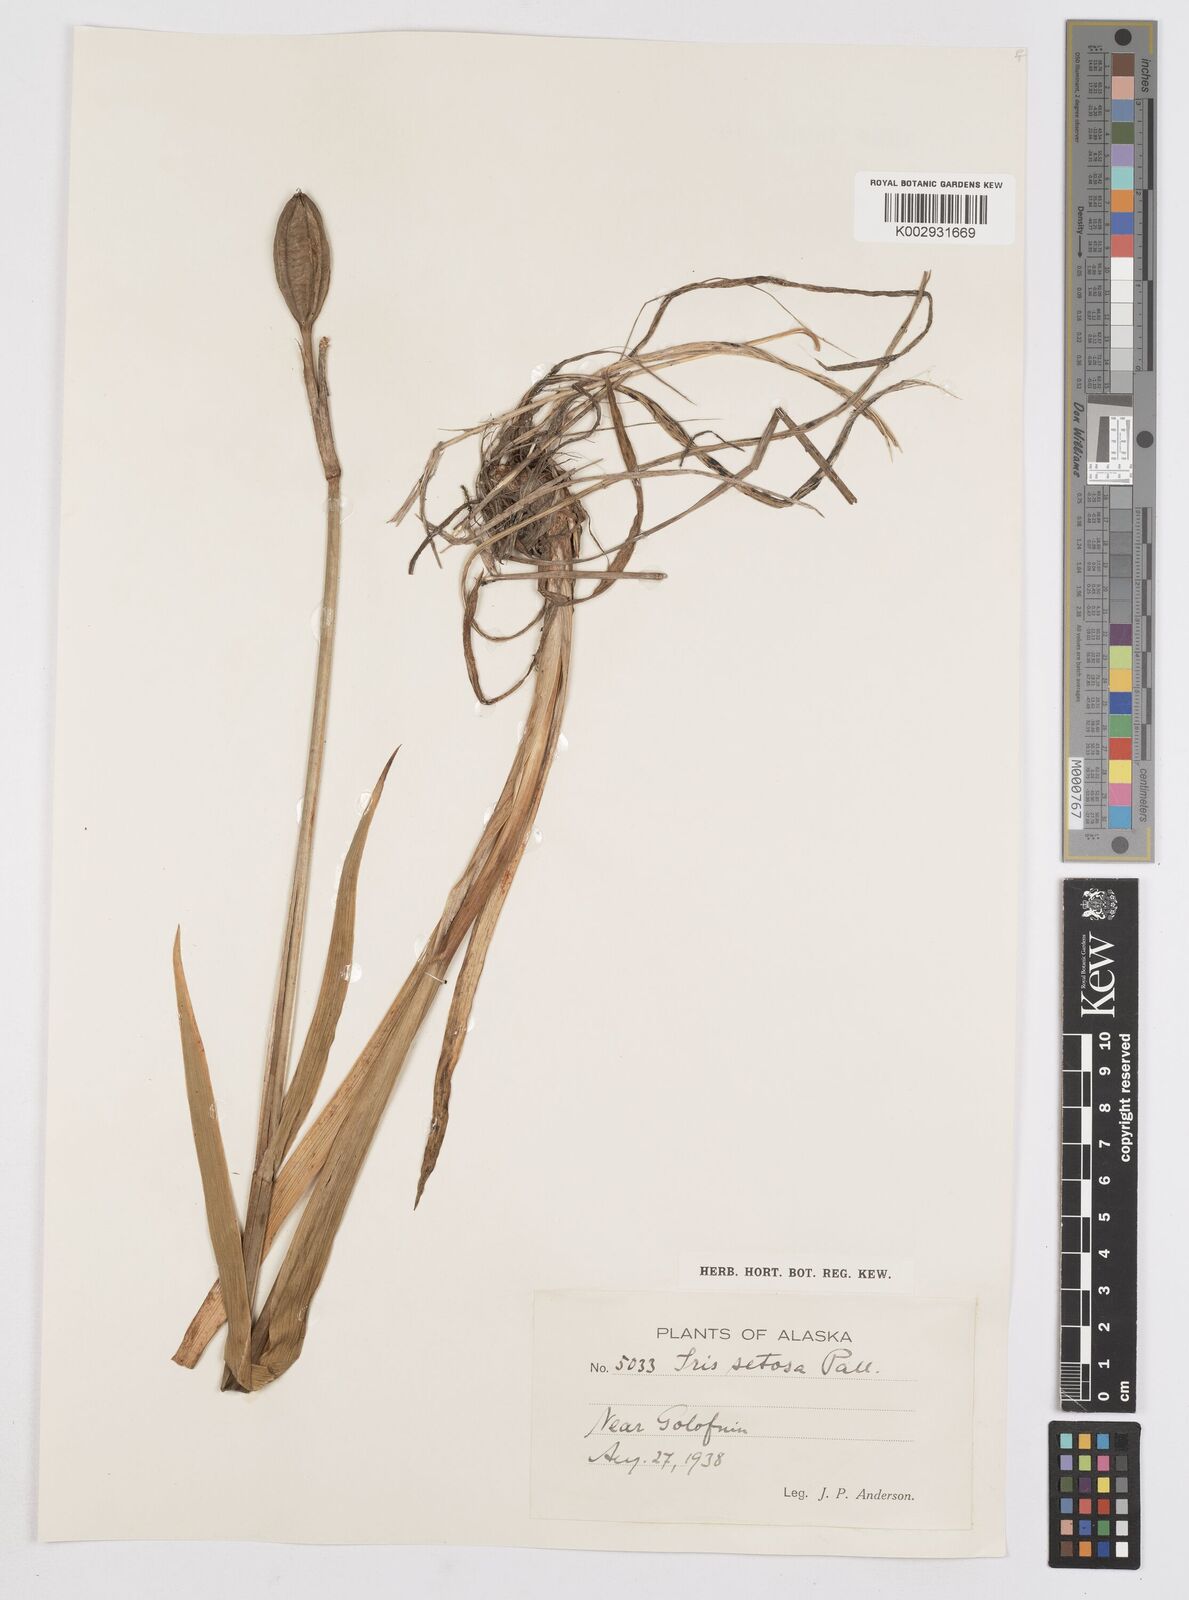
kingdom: Plantae
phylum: Tracheophyta
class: Liliopsida
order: Asparagales
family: Iridaceae
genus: Iris
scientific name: Iris setosa
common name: Arctic blue flag
